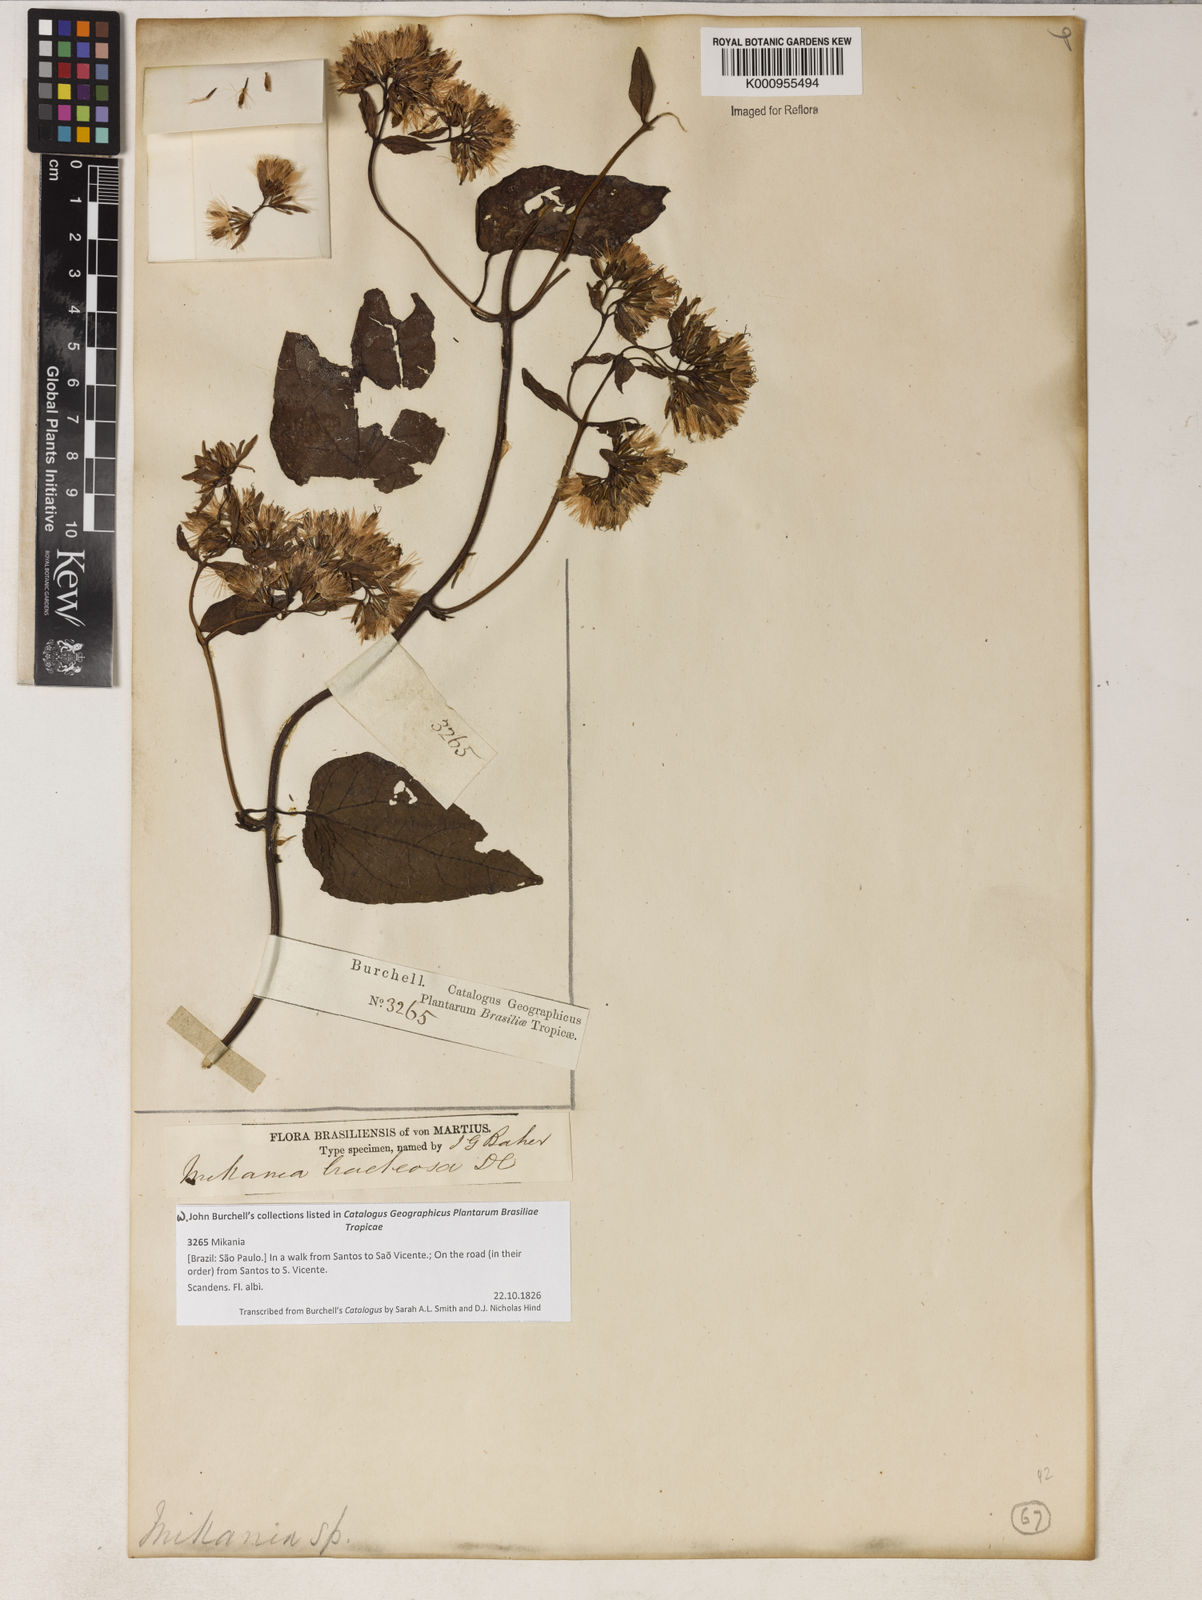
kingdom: Plantae
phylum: Tracheophyta
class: Magnoliopsida
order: Asterales
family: Asteraceae
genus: Mikania
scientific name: Mikania involucrata
